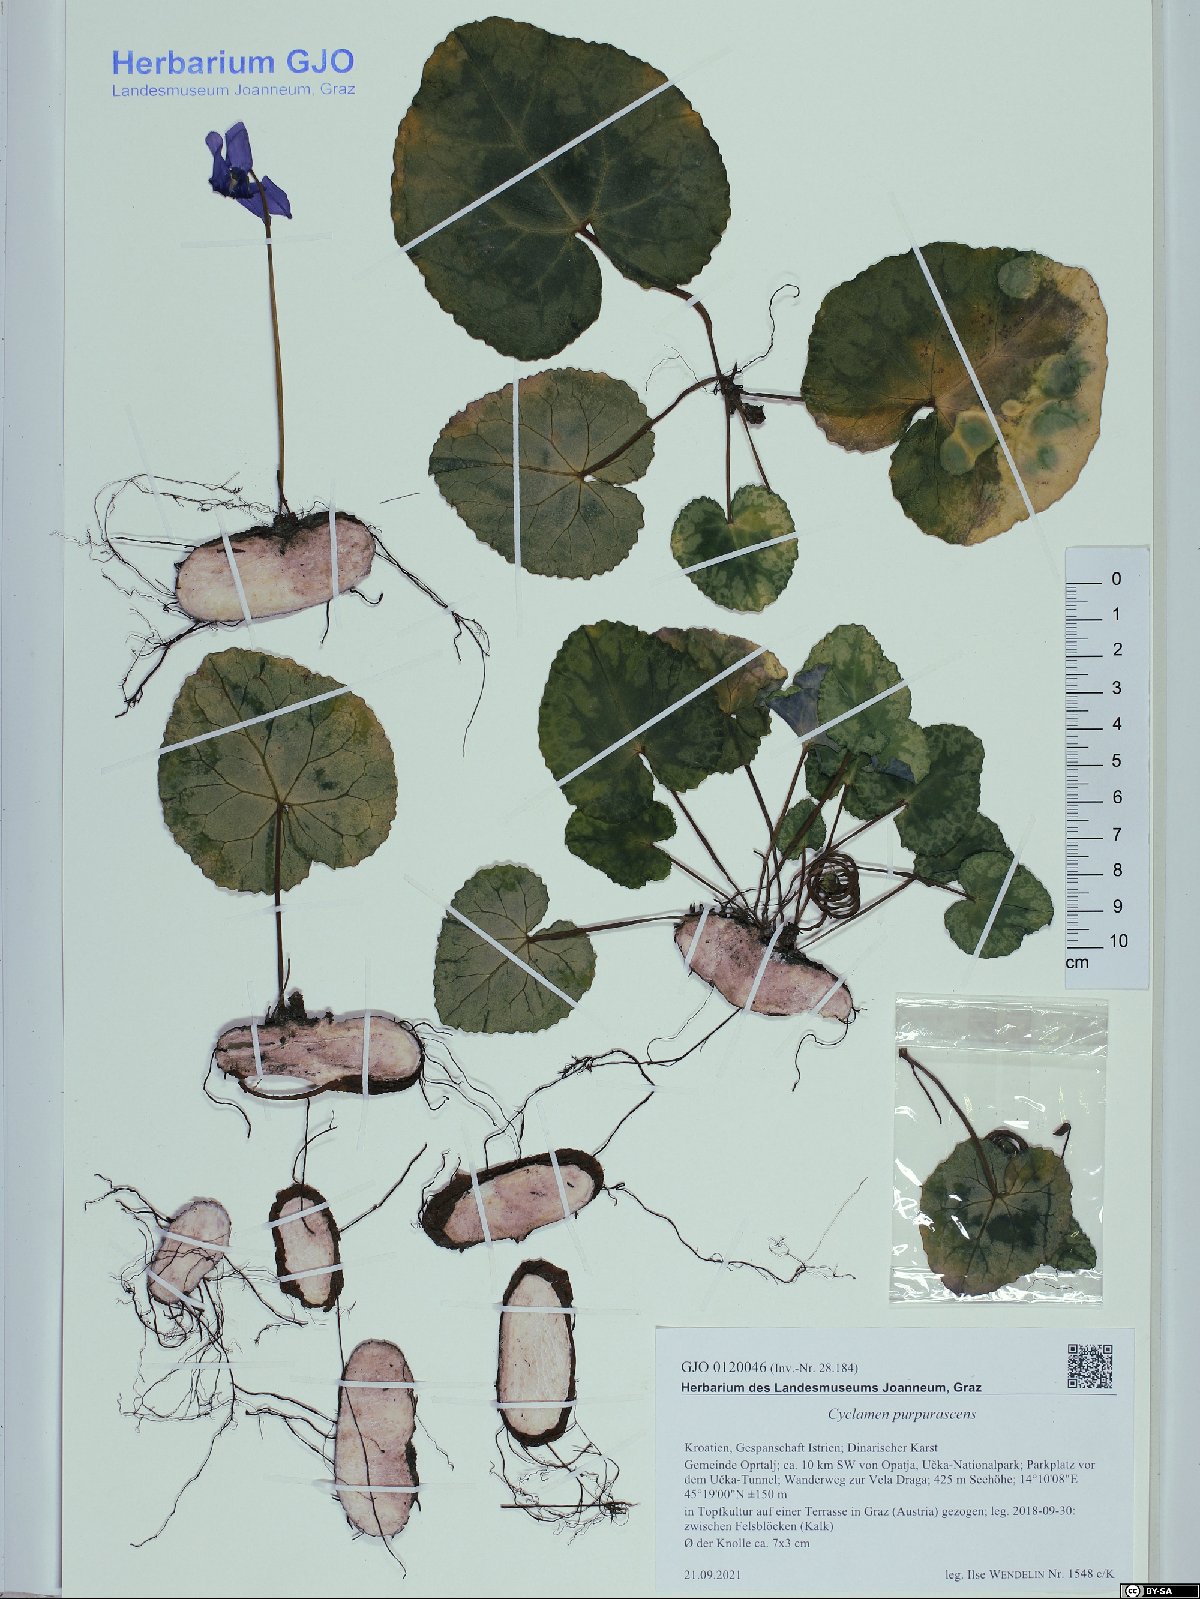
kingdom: Plantae
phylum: Tracheophyta
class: Magnoliopsida
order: Ericales
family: Primulaceae
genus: Cyclamen
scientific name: Cyclamen purpurascens
